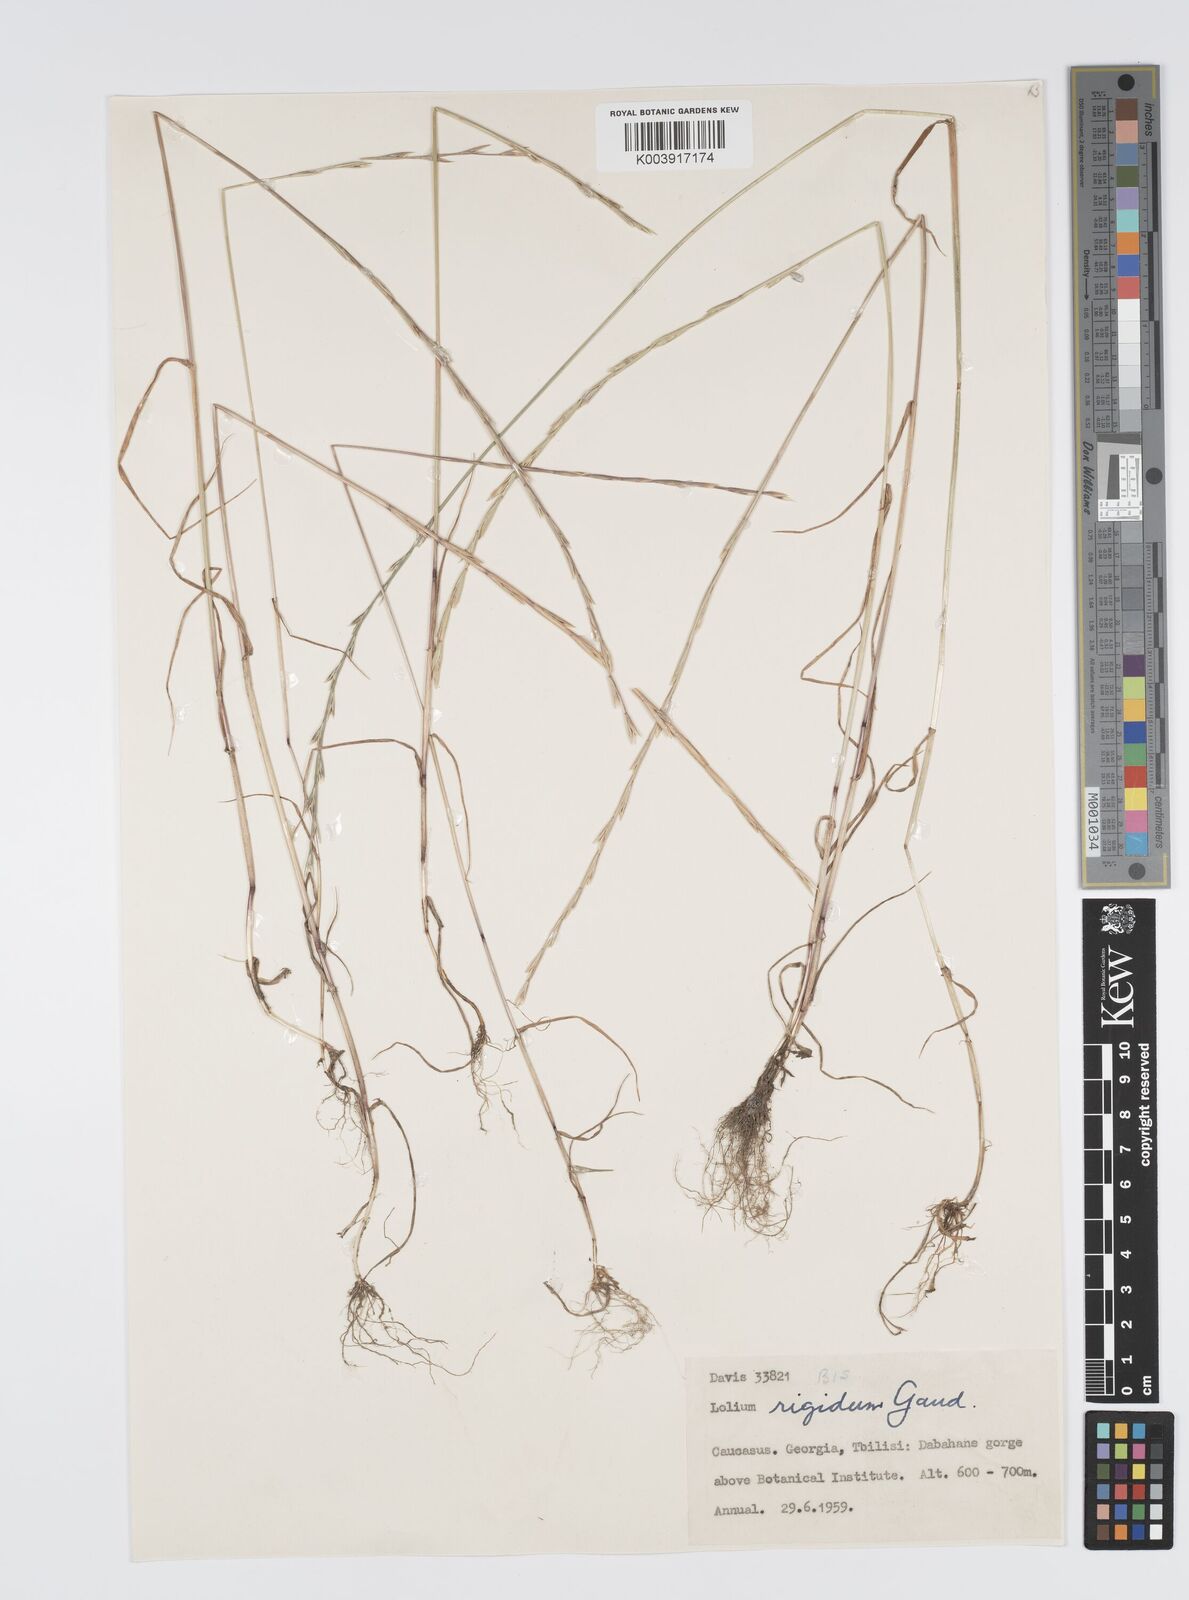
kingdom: Plantae
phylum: Tracheophyta
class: Liliopsida
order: Poales
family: Poaceae
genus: Lolium
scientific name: Lolium rigidum
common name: Wimmera ryegrass
